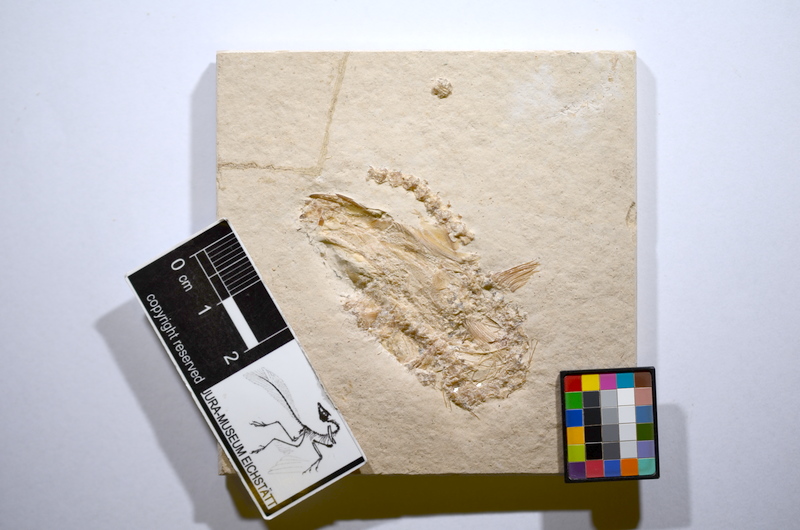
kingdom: Animalia
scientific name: Animalia
